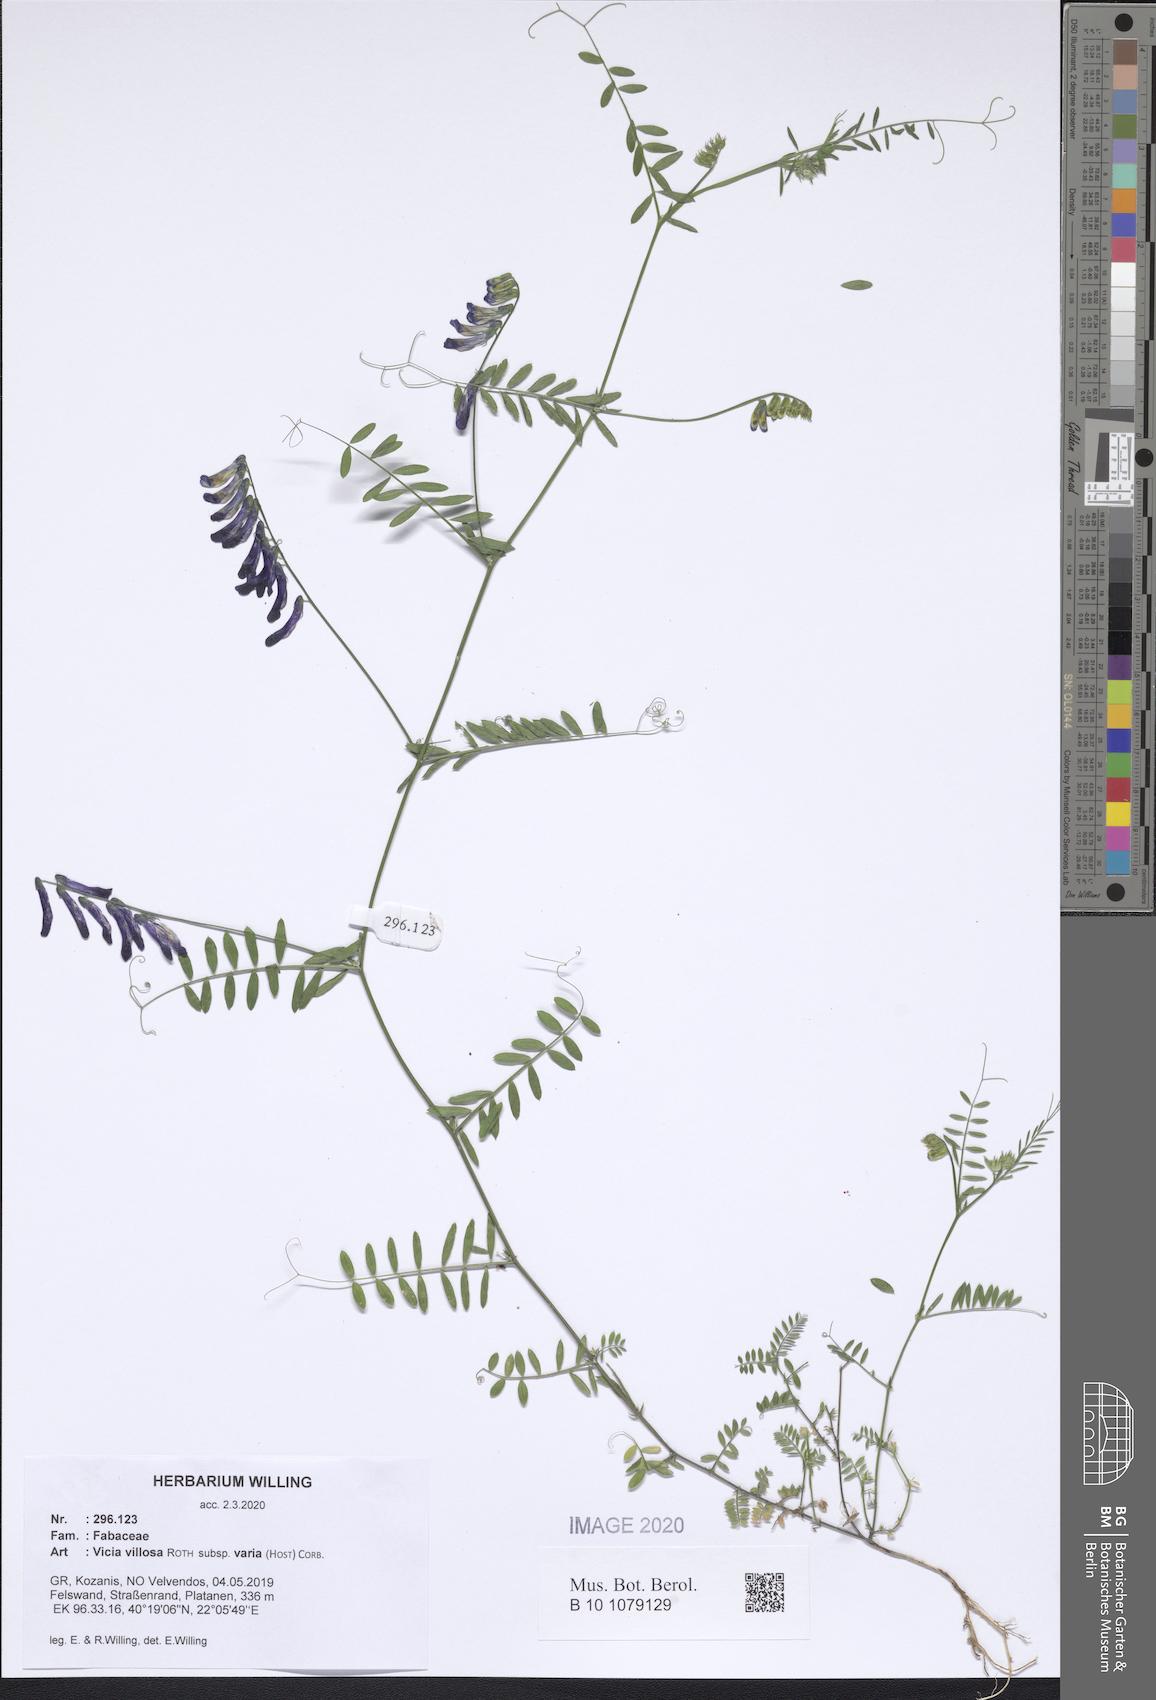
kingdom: Plantae
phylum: Tracheophyta
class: Magnoliopsida
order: Fabales
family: Fabaceae
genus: Vicia
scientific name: Vicia villosa
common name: Fodder vetch
